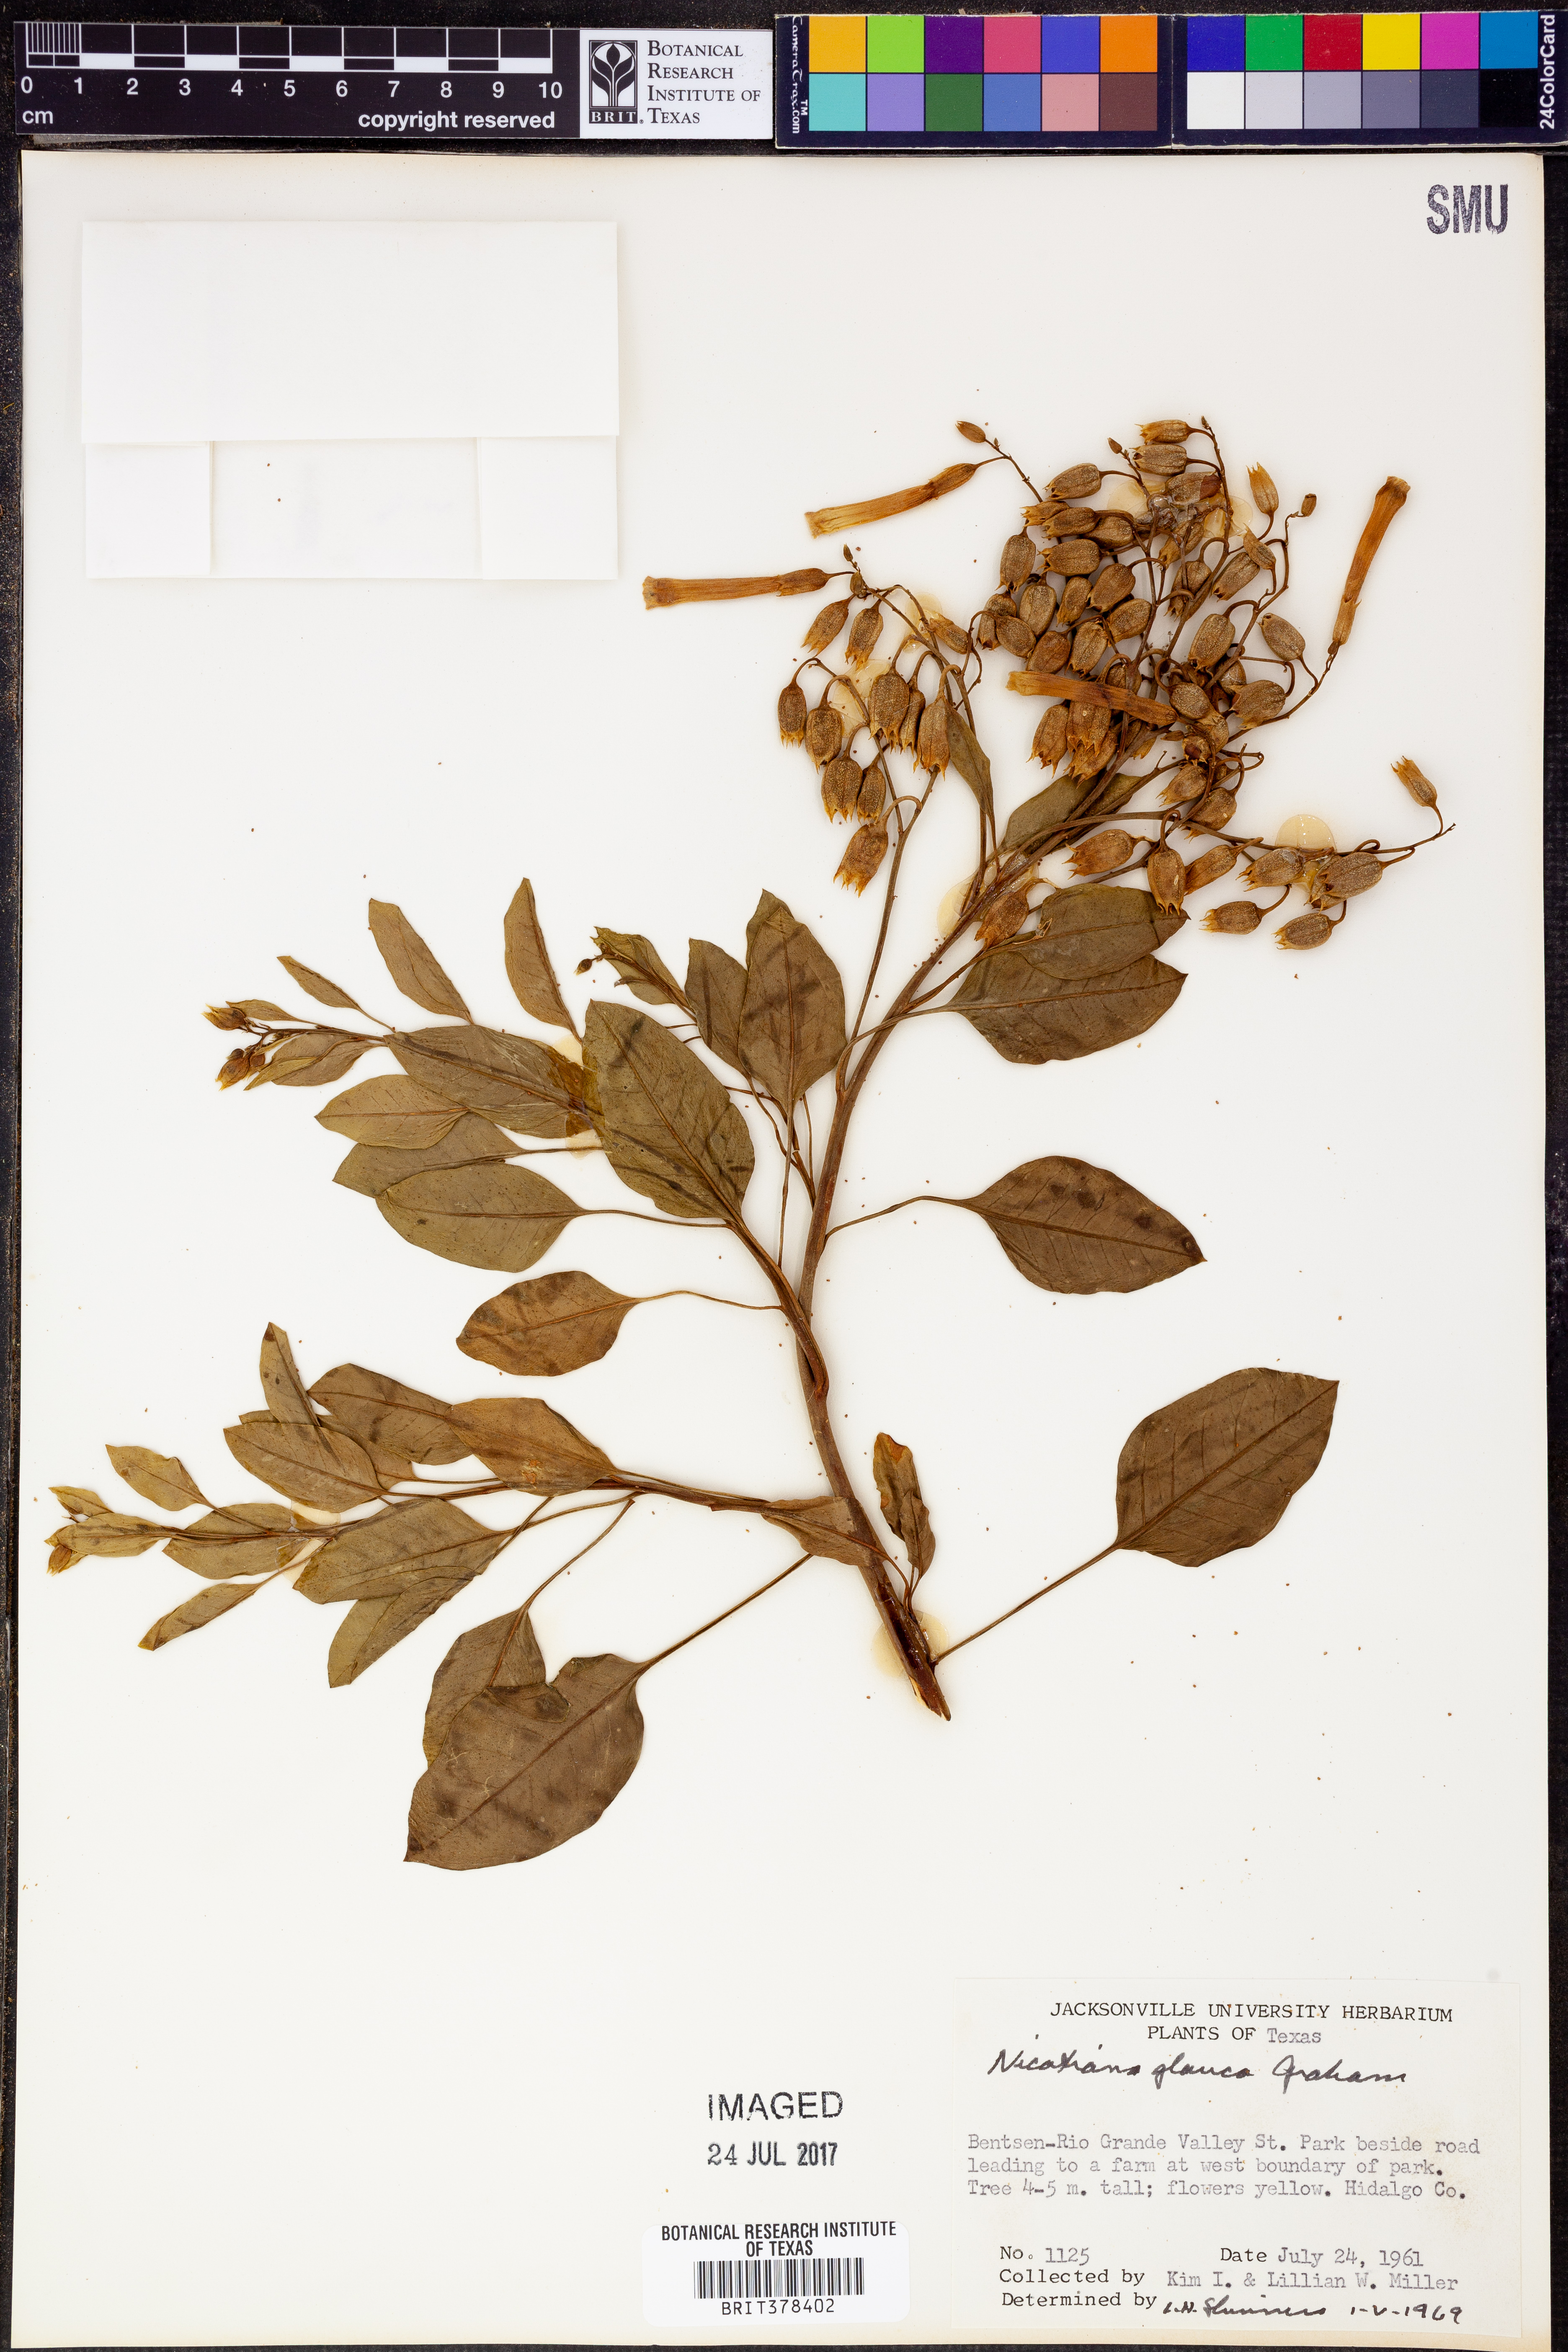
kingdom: Plantae
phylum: Tracheophyta
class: Magnoliopsida
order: Solanales
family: Solanaceae
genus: Nicotiana
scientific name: Nicotiana glauca
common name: Tree tobacco
